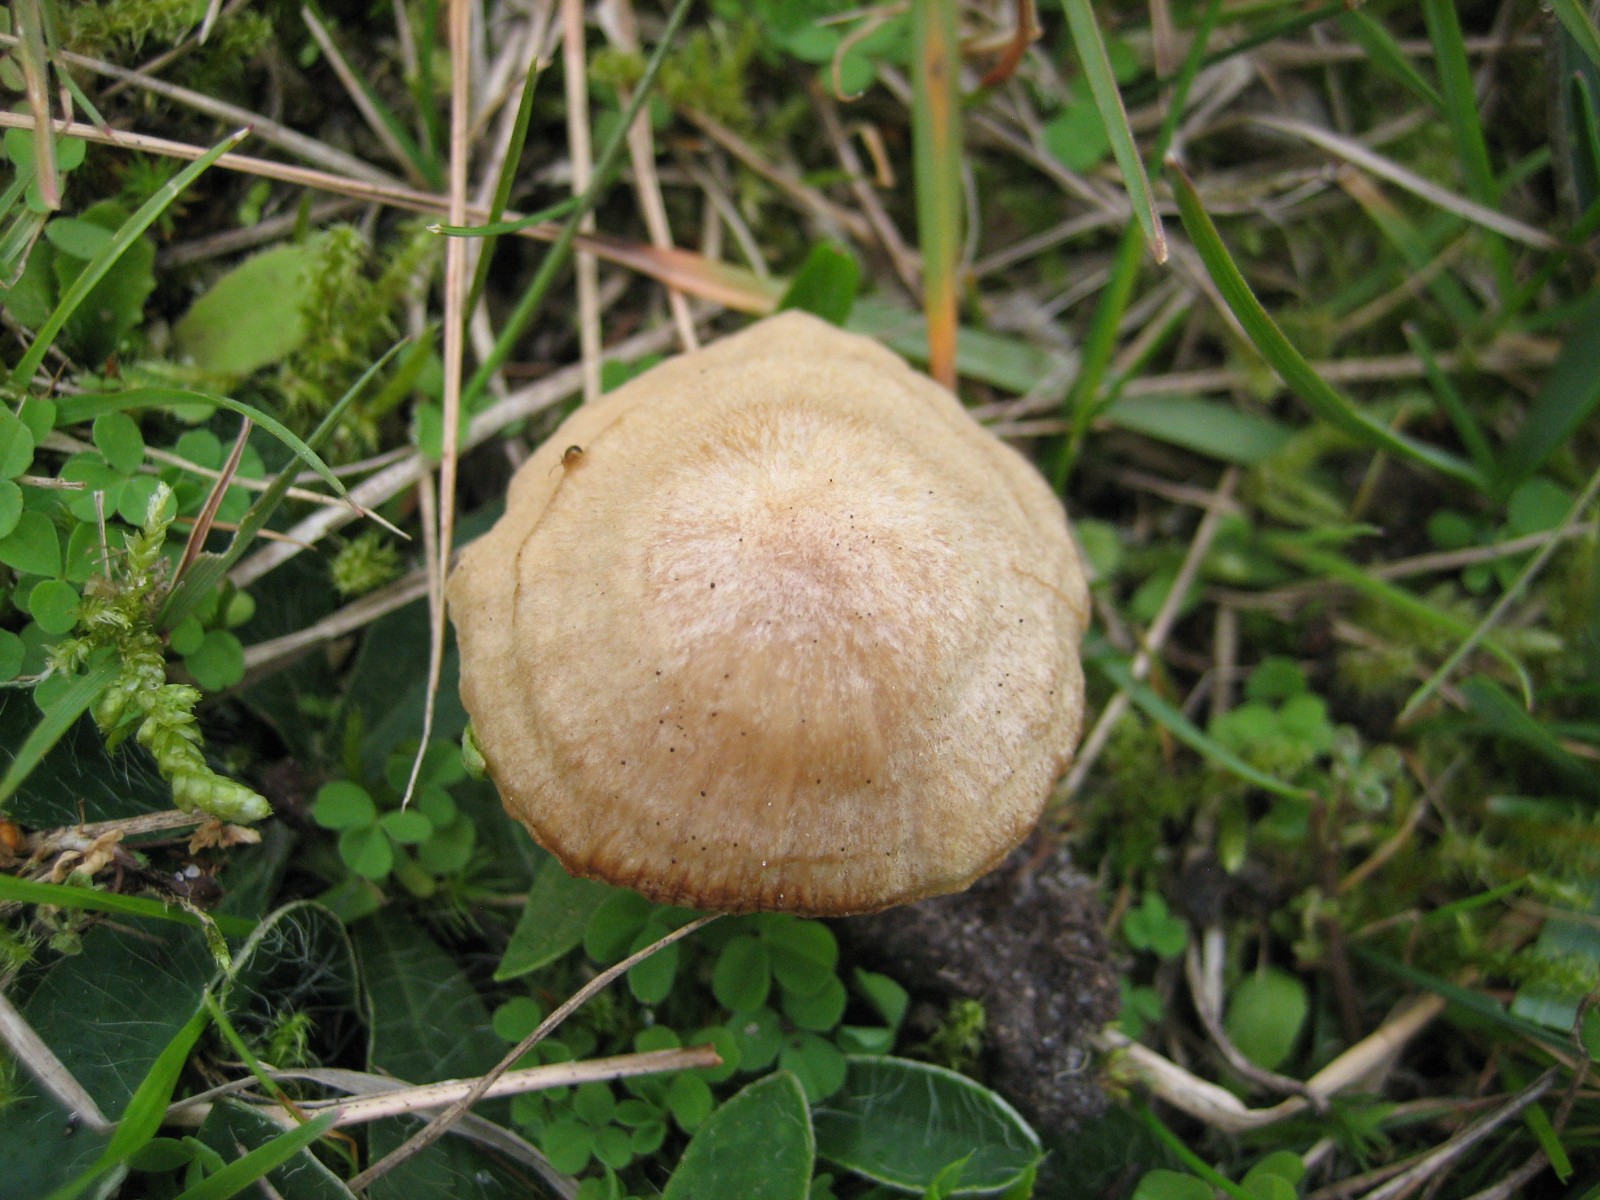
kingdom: Fungi
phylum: Basidiomycota
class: Agaricomycetes
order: Agaricales
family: Entolomataceae
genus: Entoloma
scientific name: Entoloma
